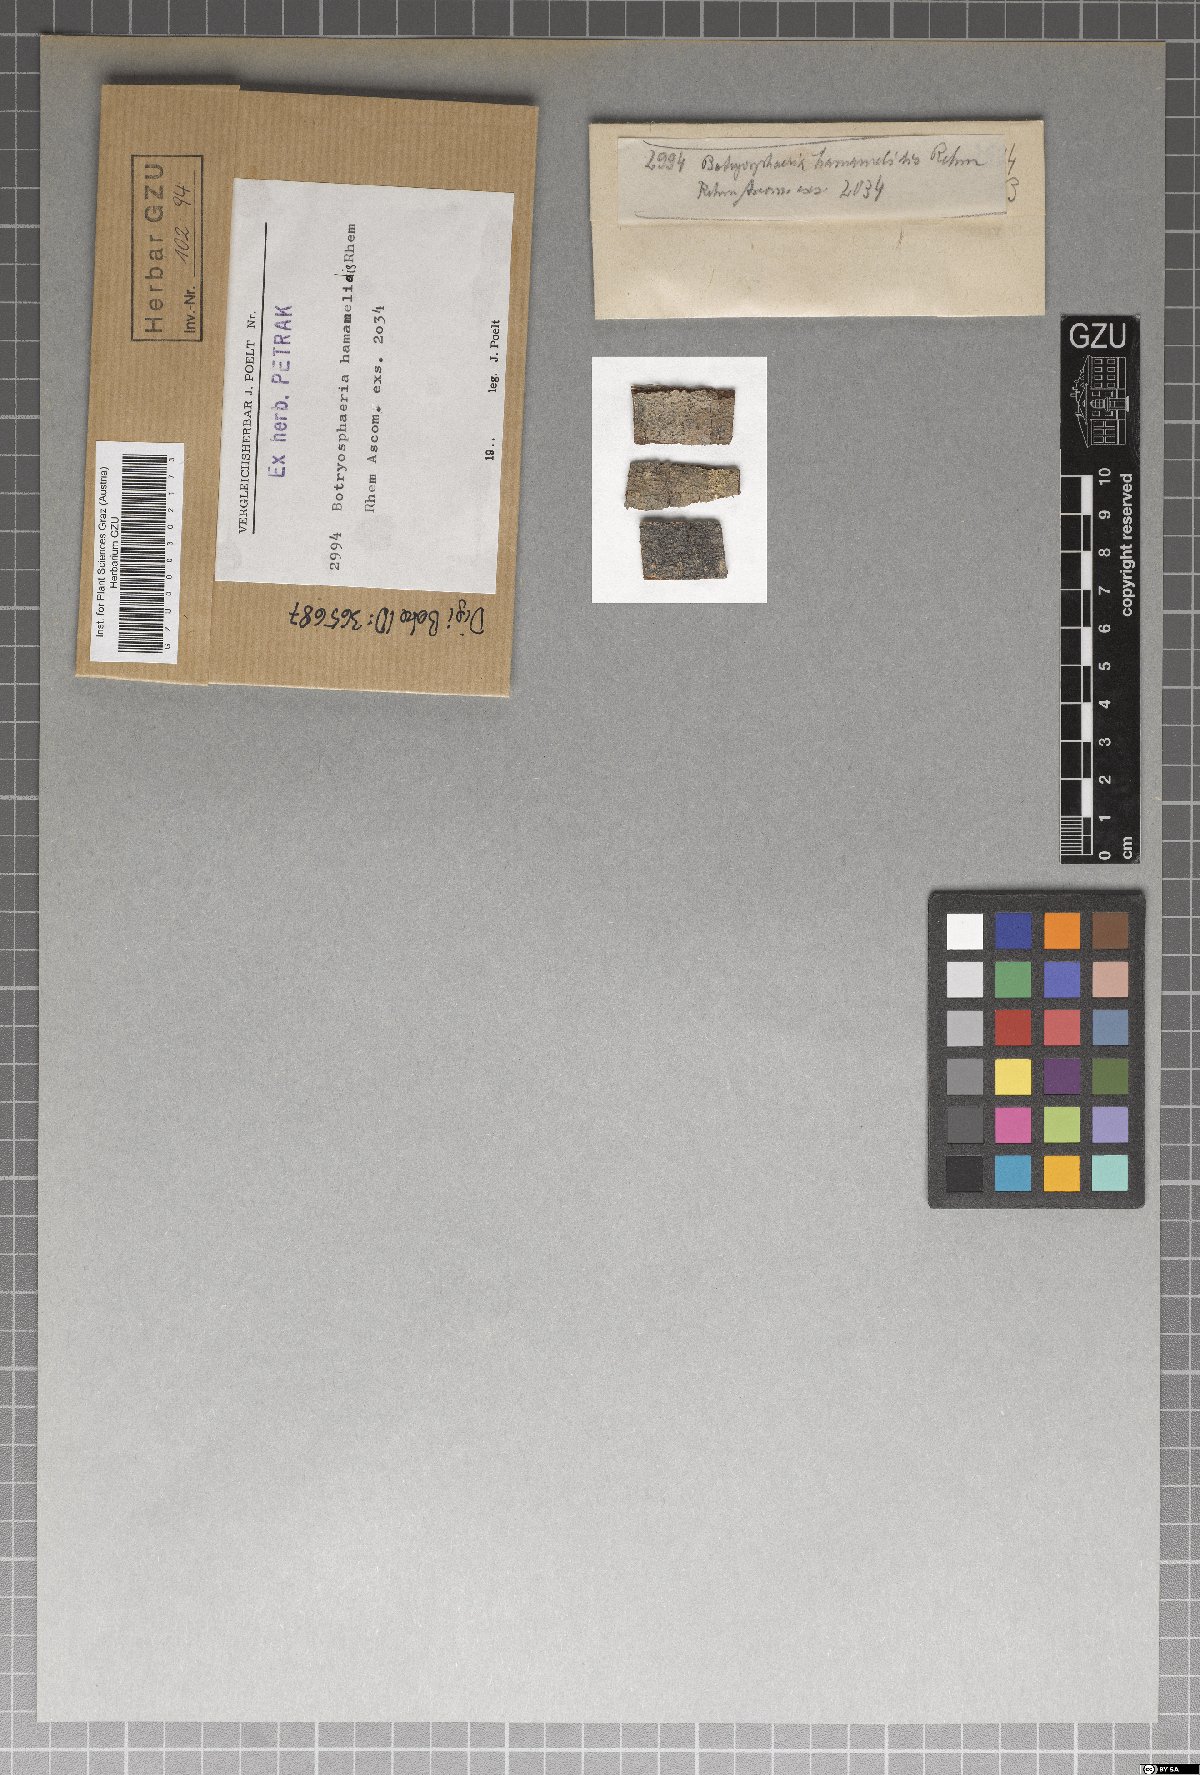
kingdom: Fungi
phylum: Ascomycota
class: Dothideomycetes
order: Botryosphaeriales
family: Botryosphaeriaceae
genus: Neofusicoccum
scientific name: Neofusicoccum hamamelidis ter
